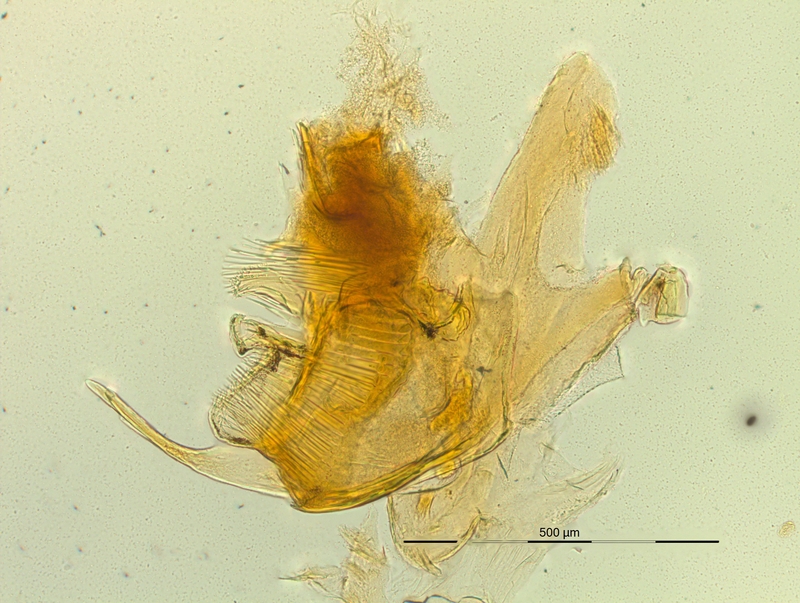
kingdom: Animalia
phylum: Arthropoda
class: Diplopoda
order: Chordeumatida
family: Craspedosomatidae
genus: Pyrgocyphosoma
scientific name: Pyrgocyphosoma ligusticum
